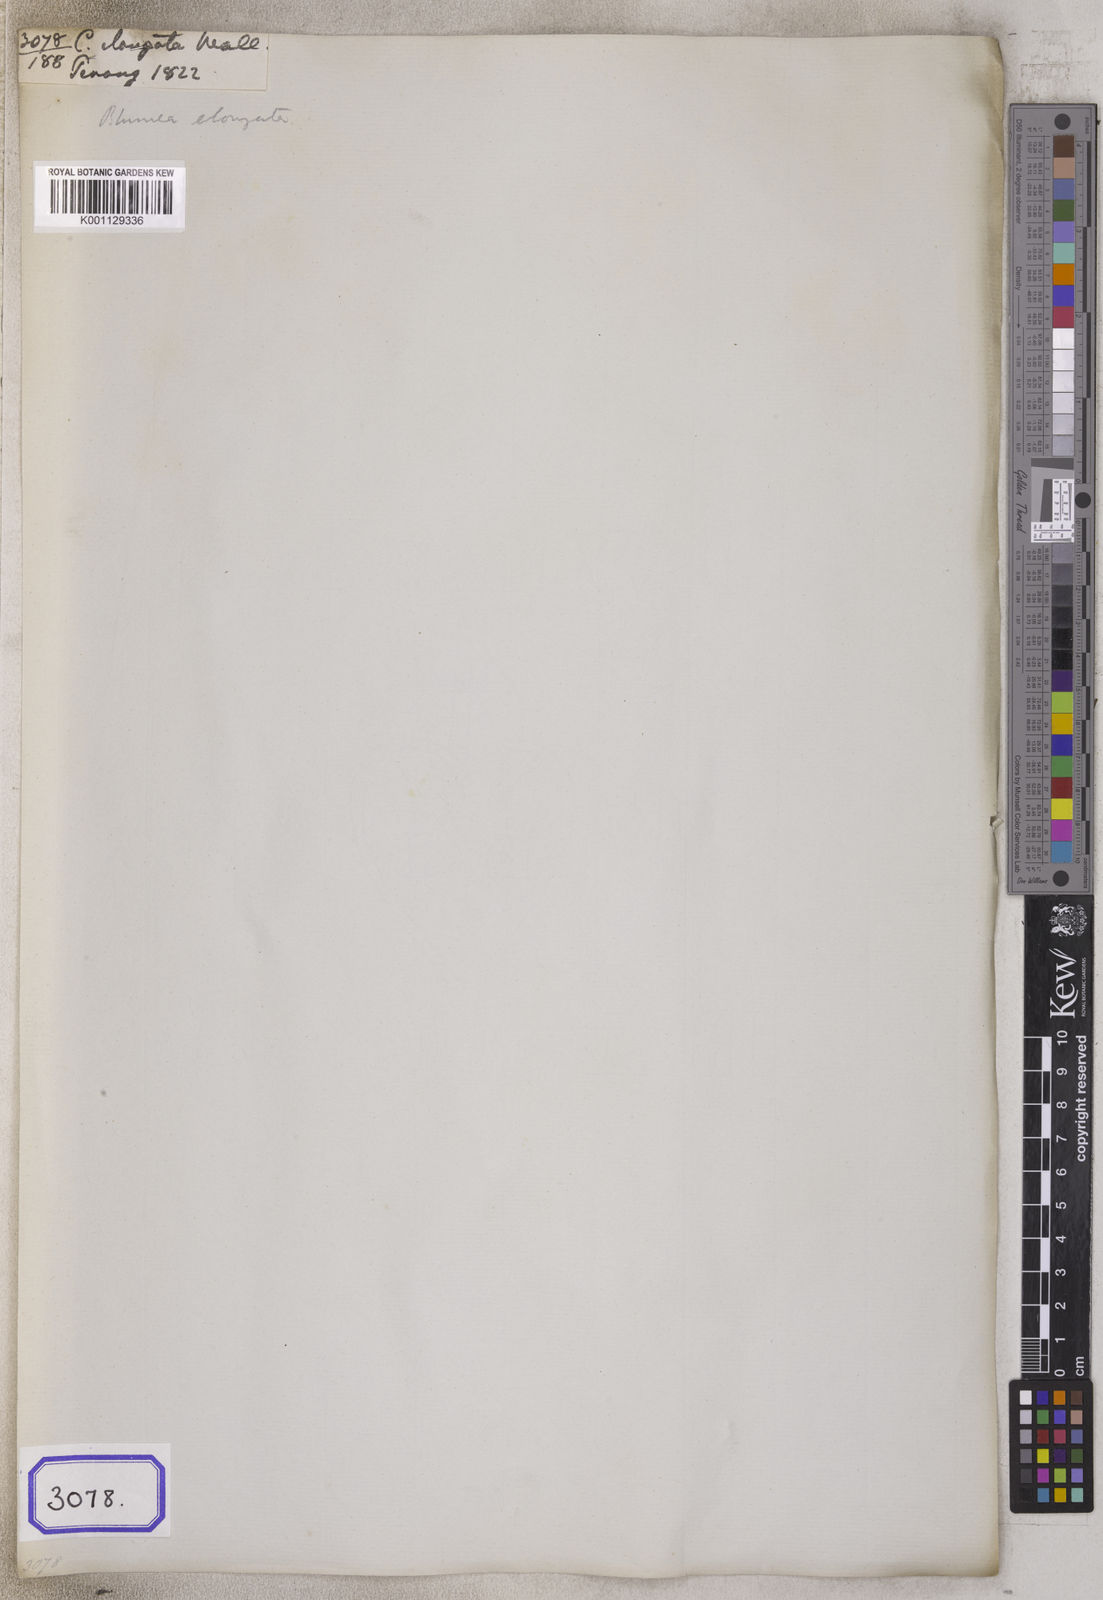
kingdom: Plantae
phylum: Tracheophyta
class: Magnoliopsida
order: Asterales
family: Asteraceae
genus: Blumea
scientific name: Blumea hirsuta
